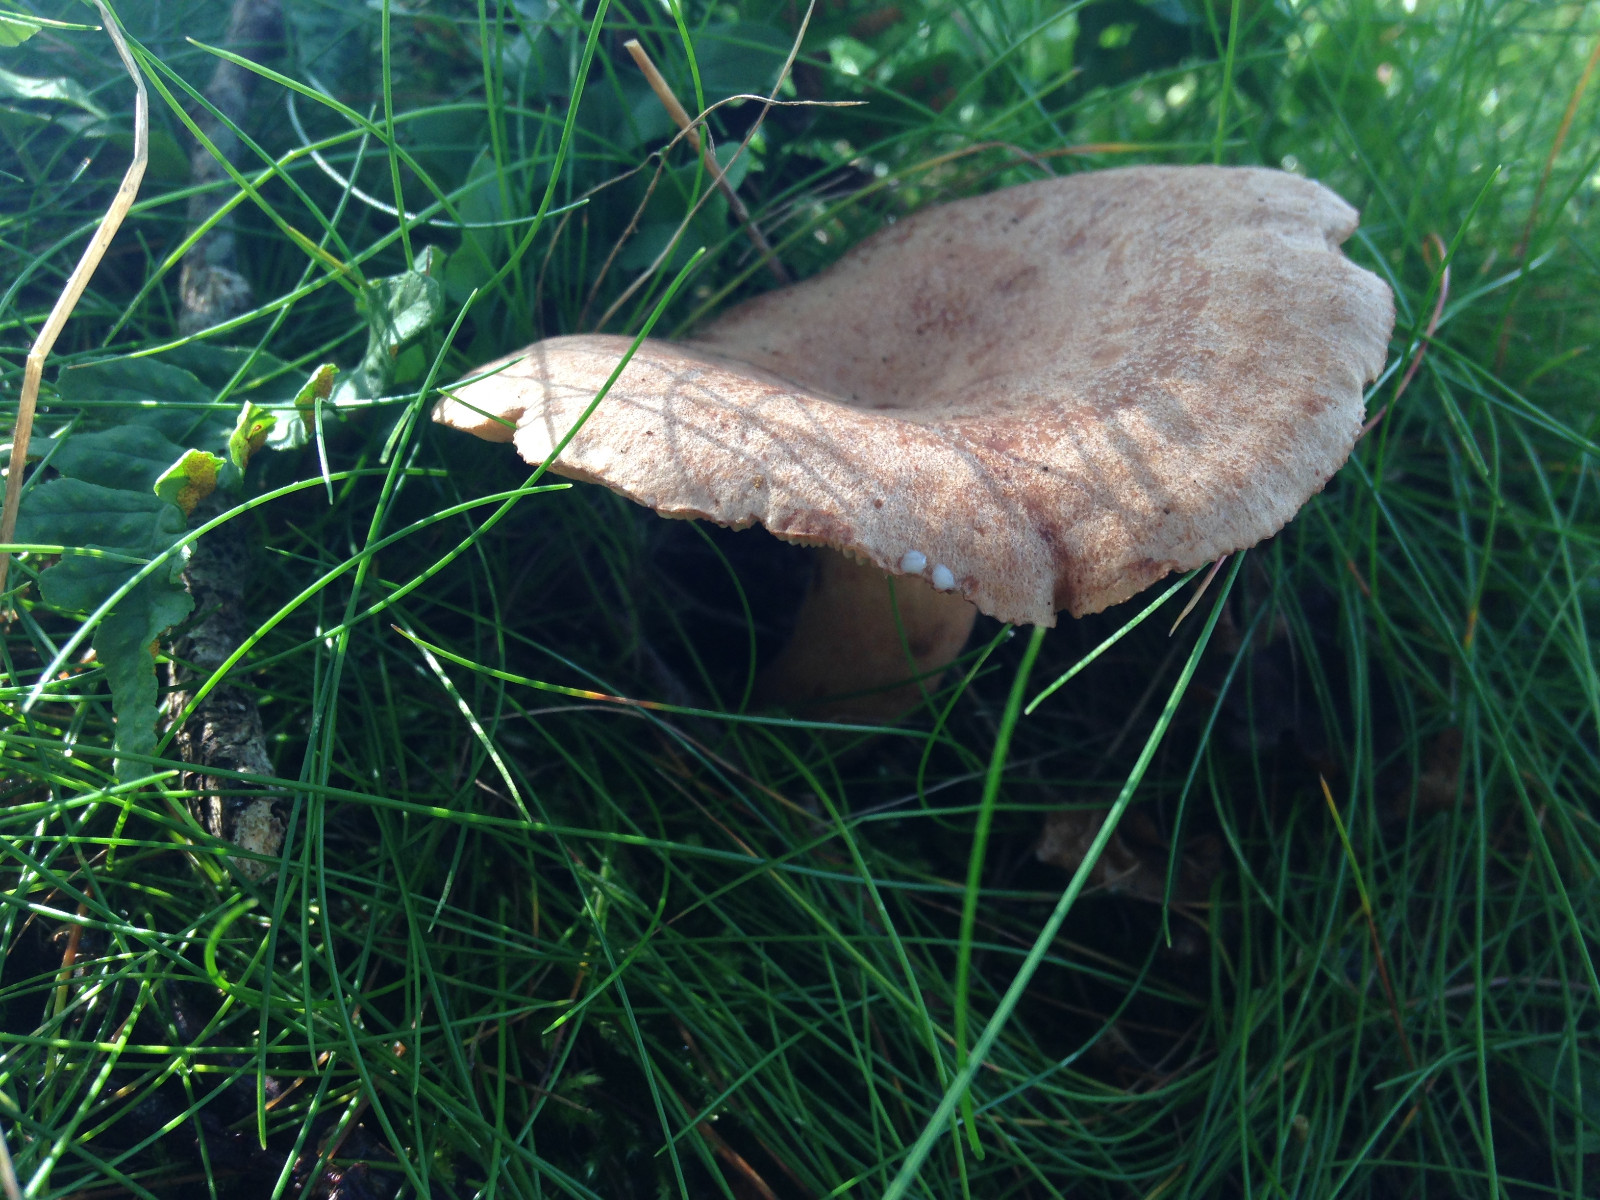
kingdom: Fungi
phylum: Basidiomycota
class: Agaricomycetes
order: Russulales
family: Russulaceae
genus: Lactarius
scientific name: Lactarius quietus
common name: ege-mælkehat
